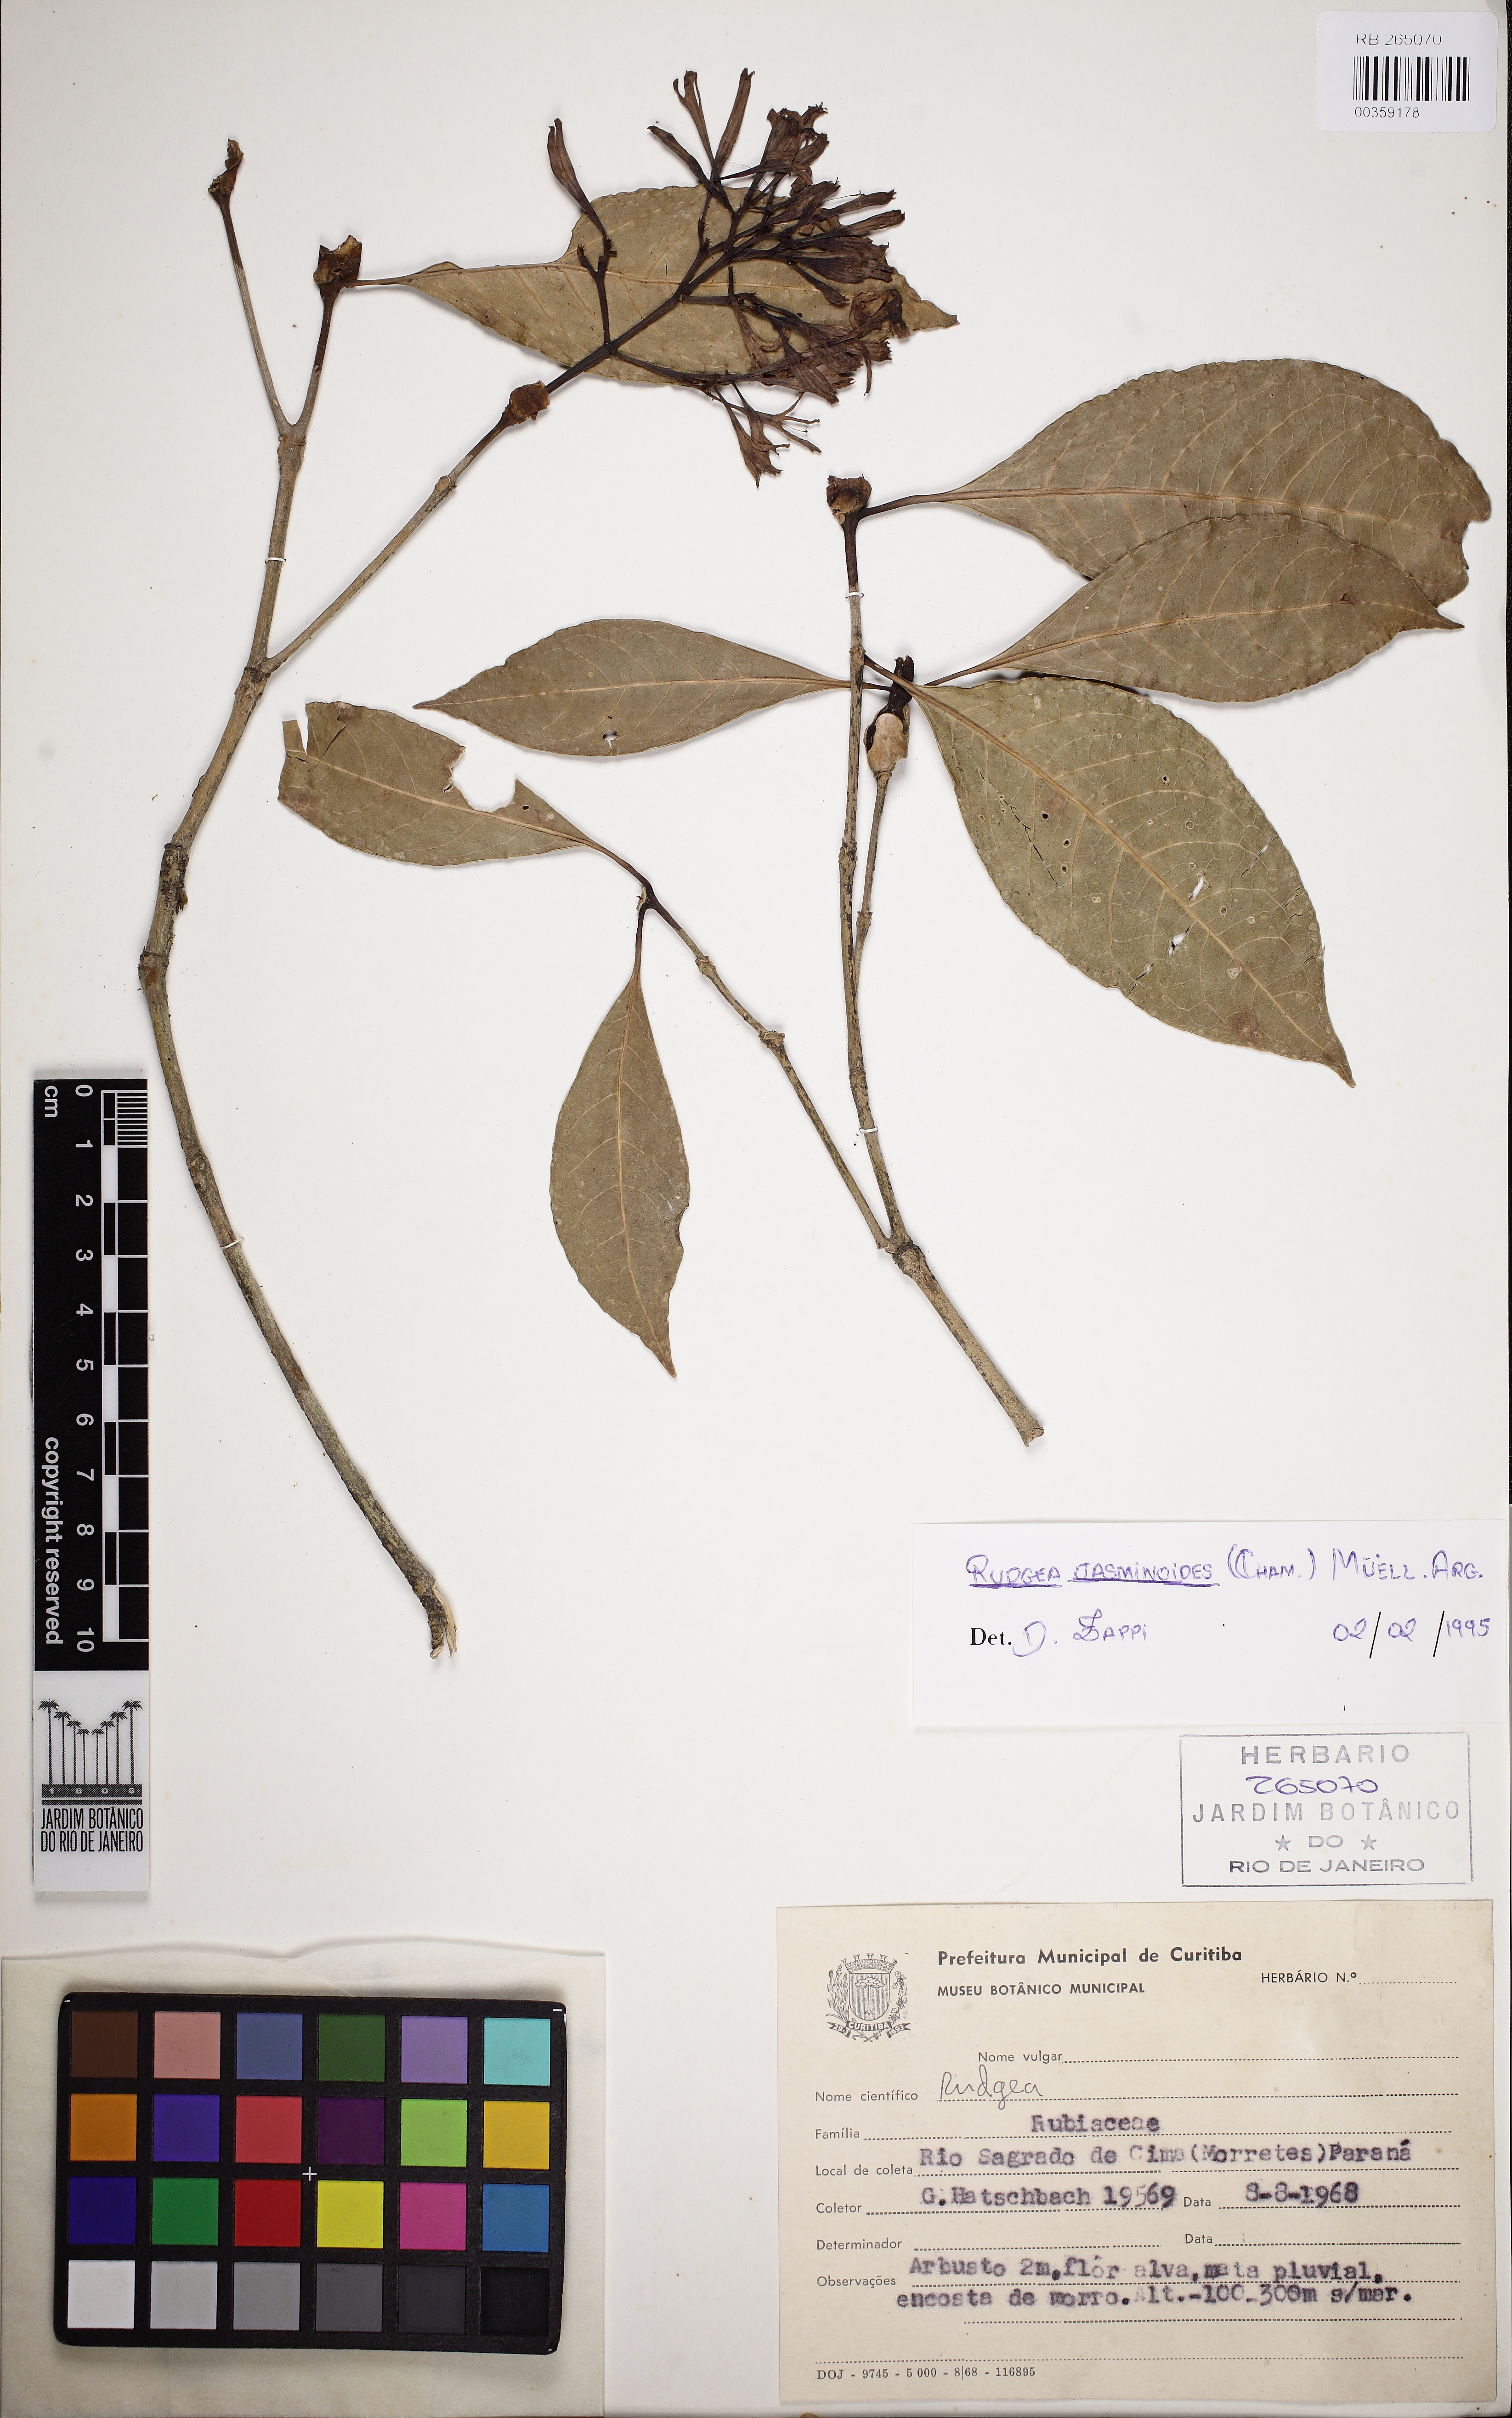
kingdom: Plantae
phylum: Tracheophyta
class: Magnoliopsida
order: Gentianales
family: Rubiaceae
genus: Rudgea
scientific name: Rudgea jasminoides
